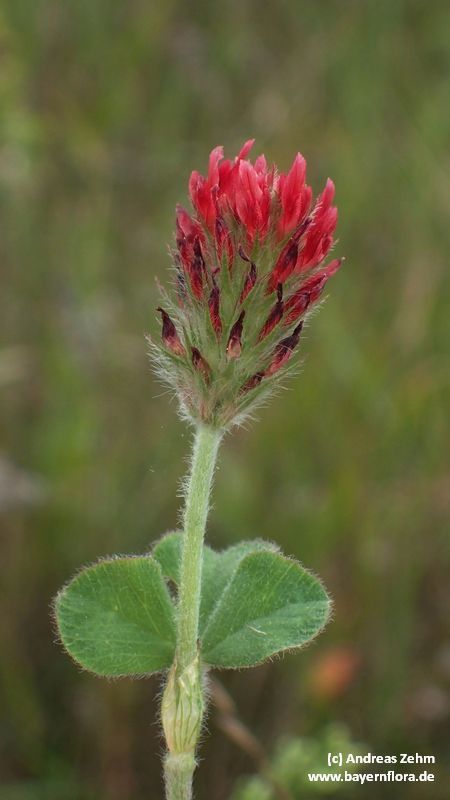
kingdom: Plantae
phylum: Tracheophyta
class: Magnoliopsida
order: Fabales
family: Fabaceae
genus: Trifolium
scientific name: Trifolium incarnatum
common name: Crimson clover
